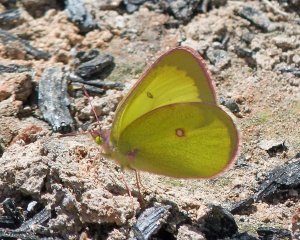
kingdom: Animalia
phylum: Arthropoda
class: Insecta
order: Lepidoptera
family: Pieridae
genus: Colias
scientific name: Colias interior
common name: Pink-edged Sulphur
